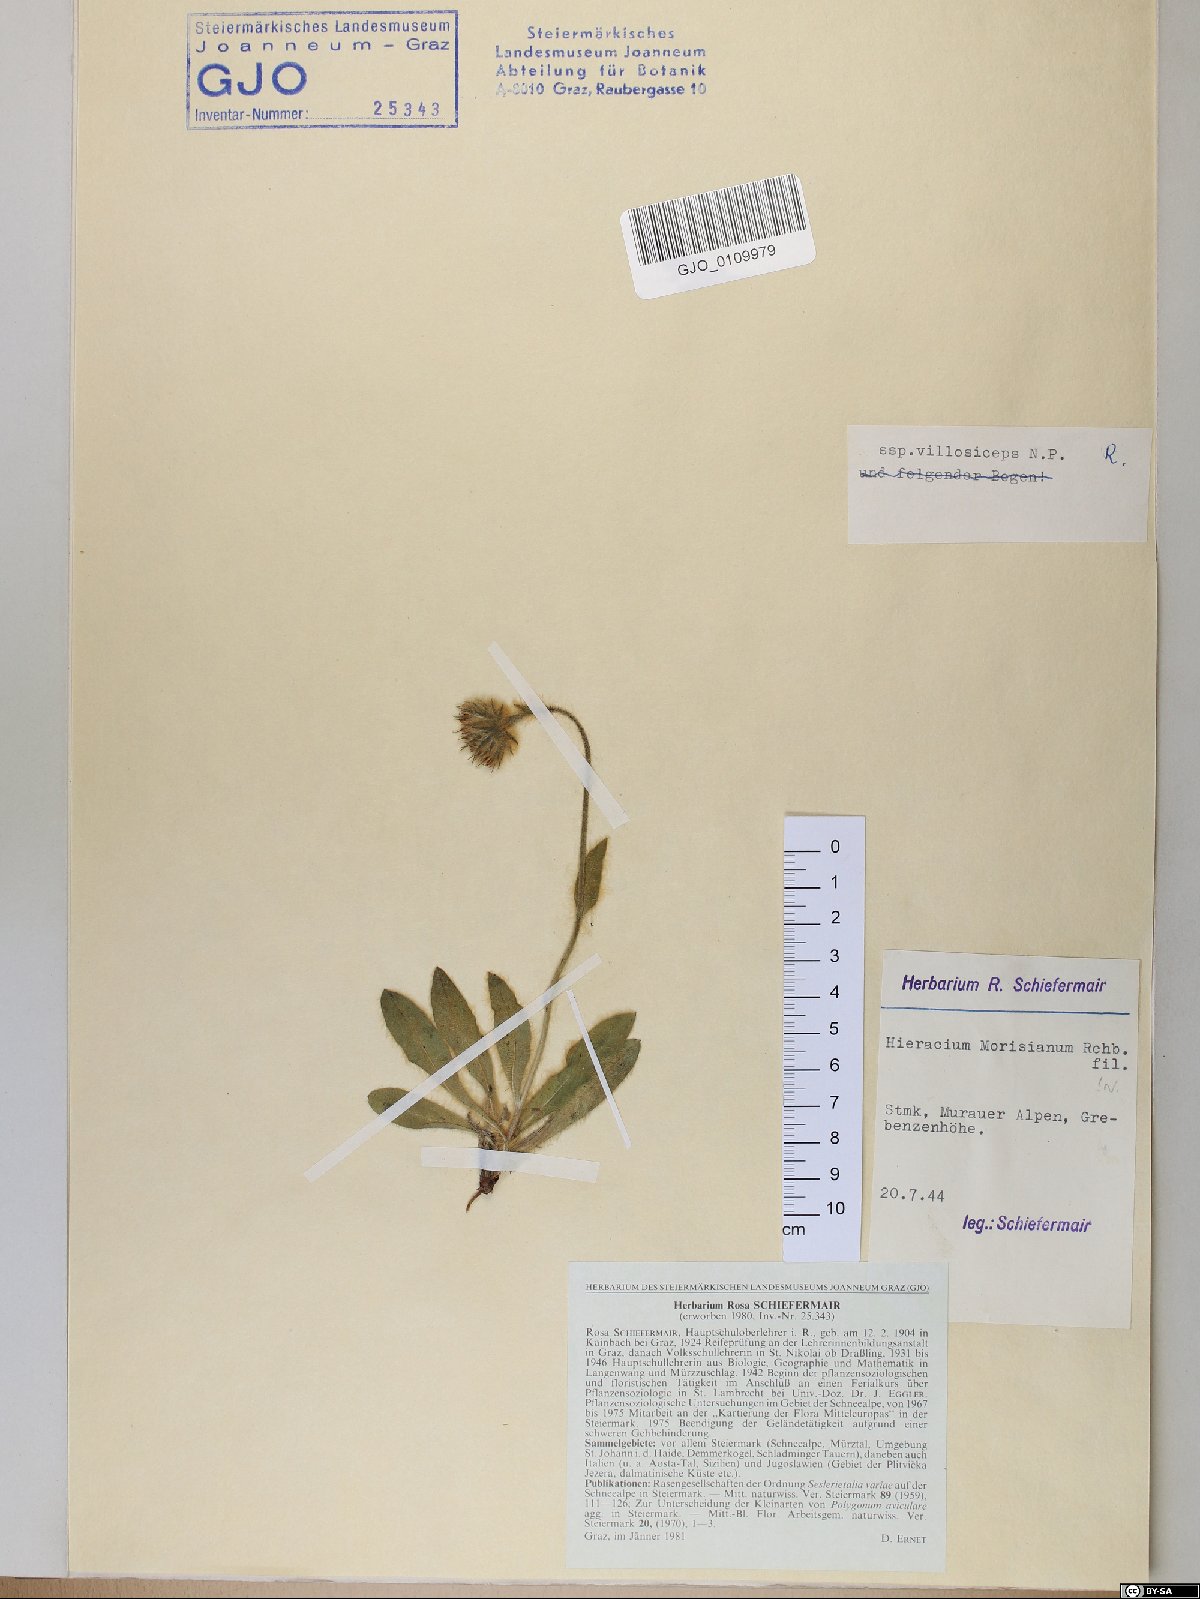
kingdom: Plantae
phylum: Tracheophyta
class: Magnoliopsida
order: Asterales
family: Asteraceae
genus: Hieracium
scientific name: Hieracium pilosum
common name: Fimbriate-pitted hawkweed
